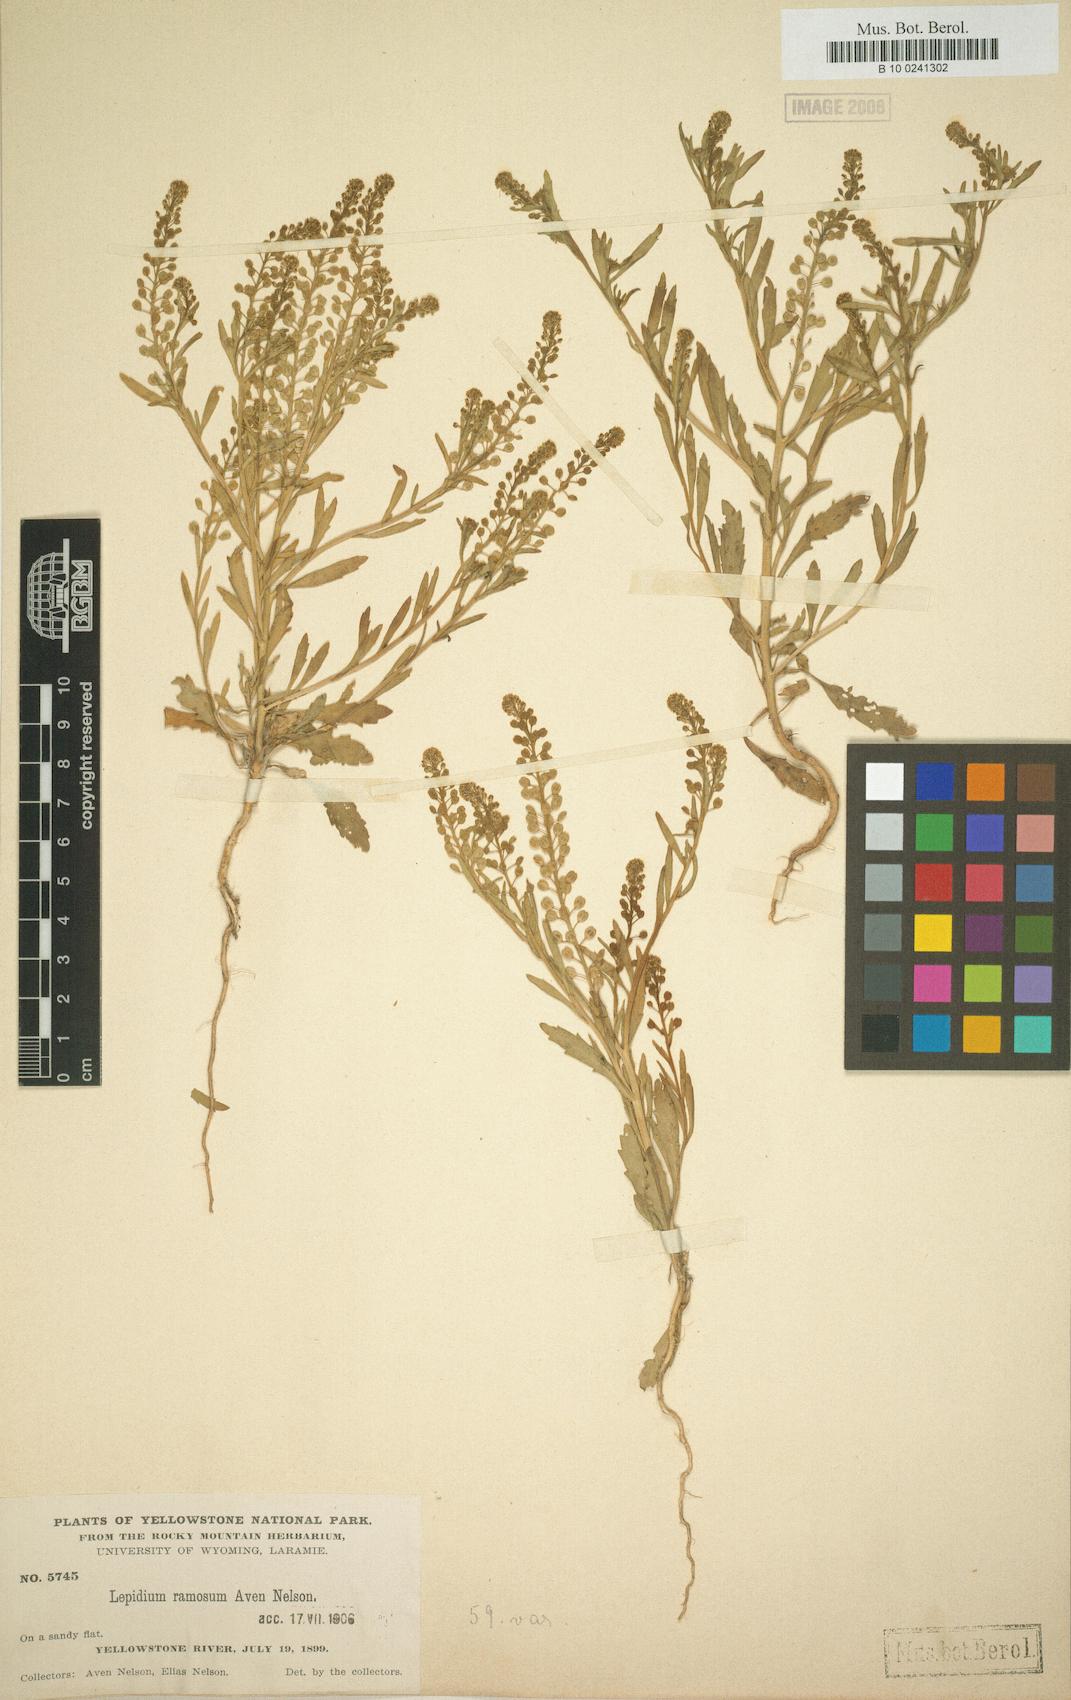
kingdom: Plantae
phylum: Tracheophyta
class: Magnoliopsida
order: Brassicales
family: Brassicaceae
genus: Lepidium
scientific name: Lepidium densiflorum
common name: Miner's pepperwort
